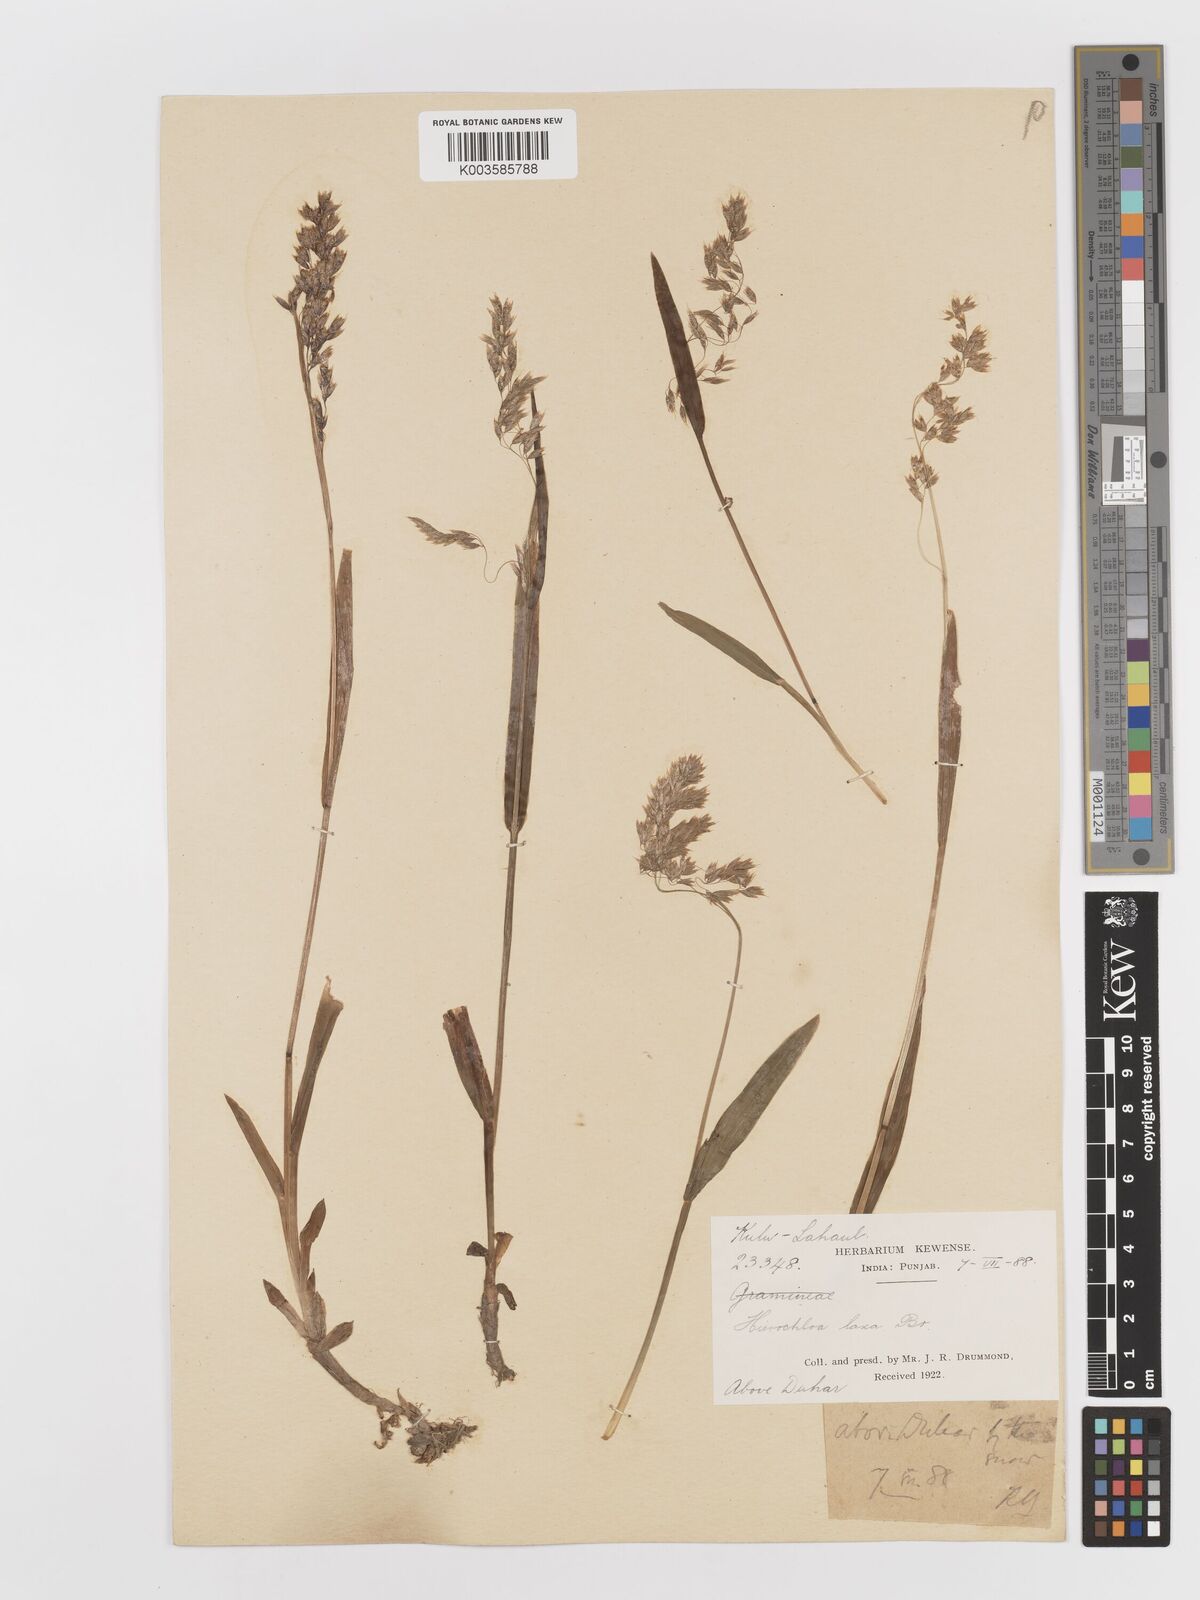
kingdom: Plantae
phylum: Tracheophyta
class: Liliopsida
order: Poales
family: Poaceae
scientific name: Poaceae
